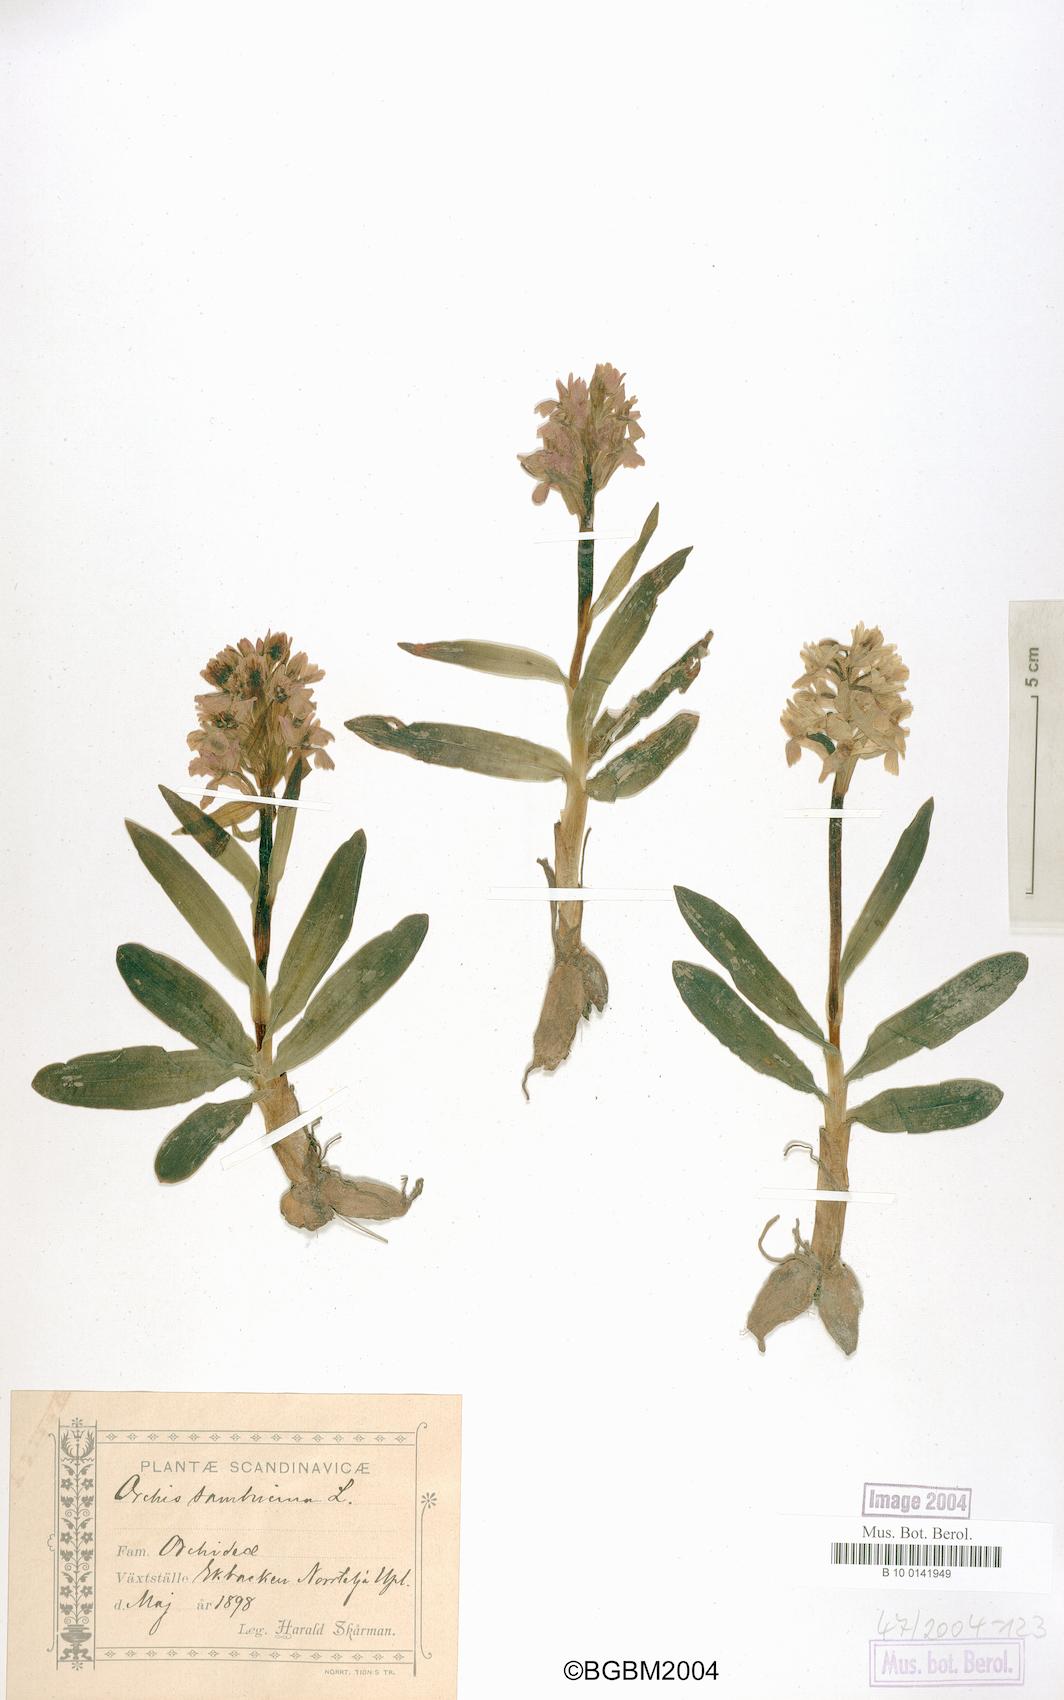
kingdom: Plantae
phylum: Tracheophyta
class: Liliopsida
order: Asparagales
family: Orchidaceae
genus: Dactylorhiza
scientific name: Dactylorhiza sambucina
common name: Elder-flowered orchid
